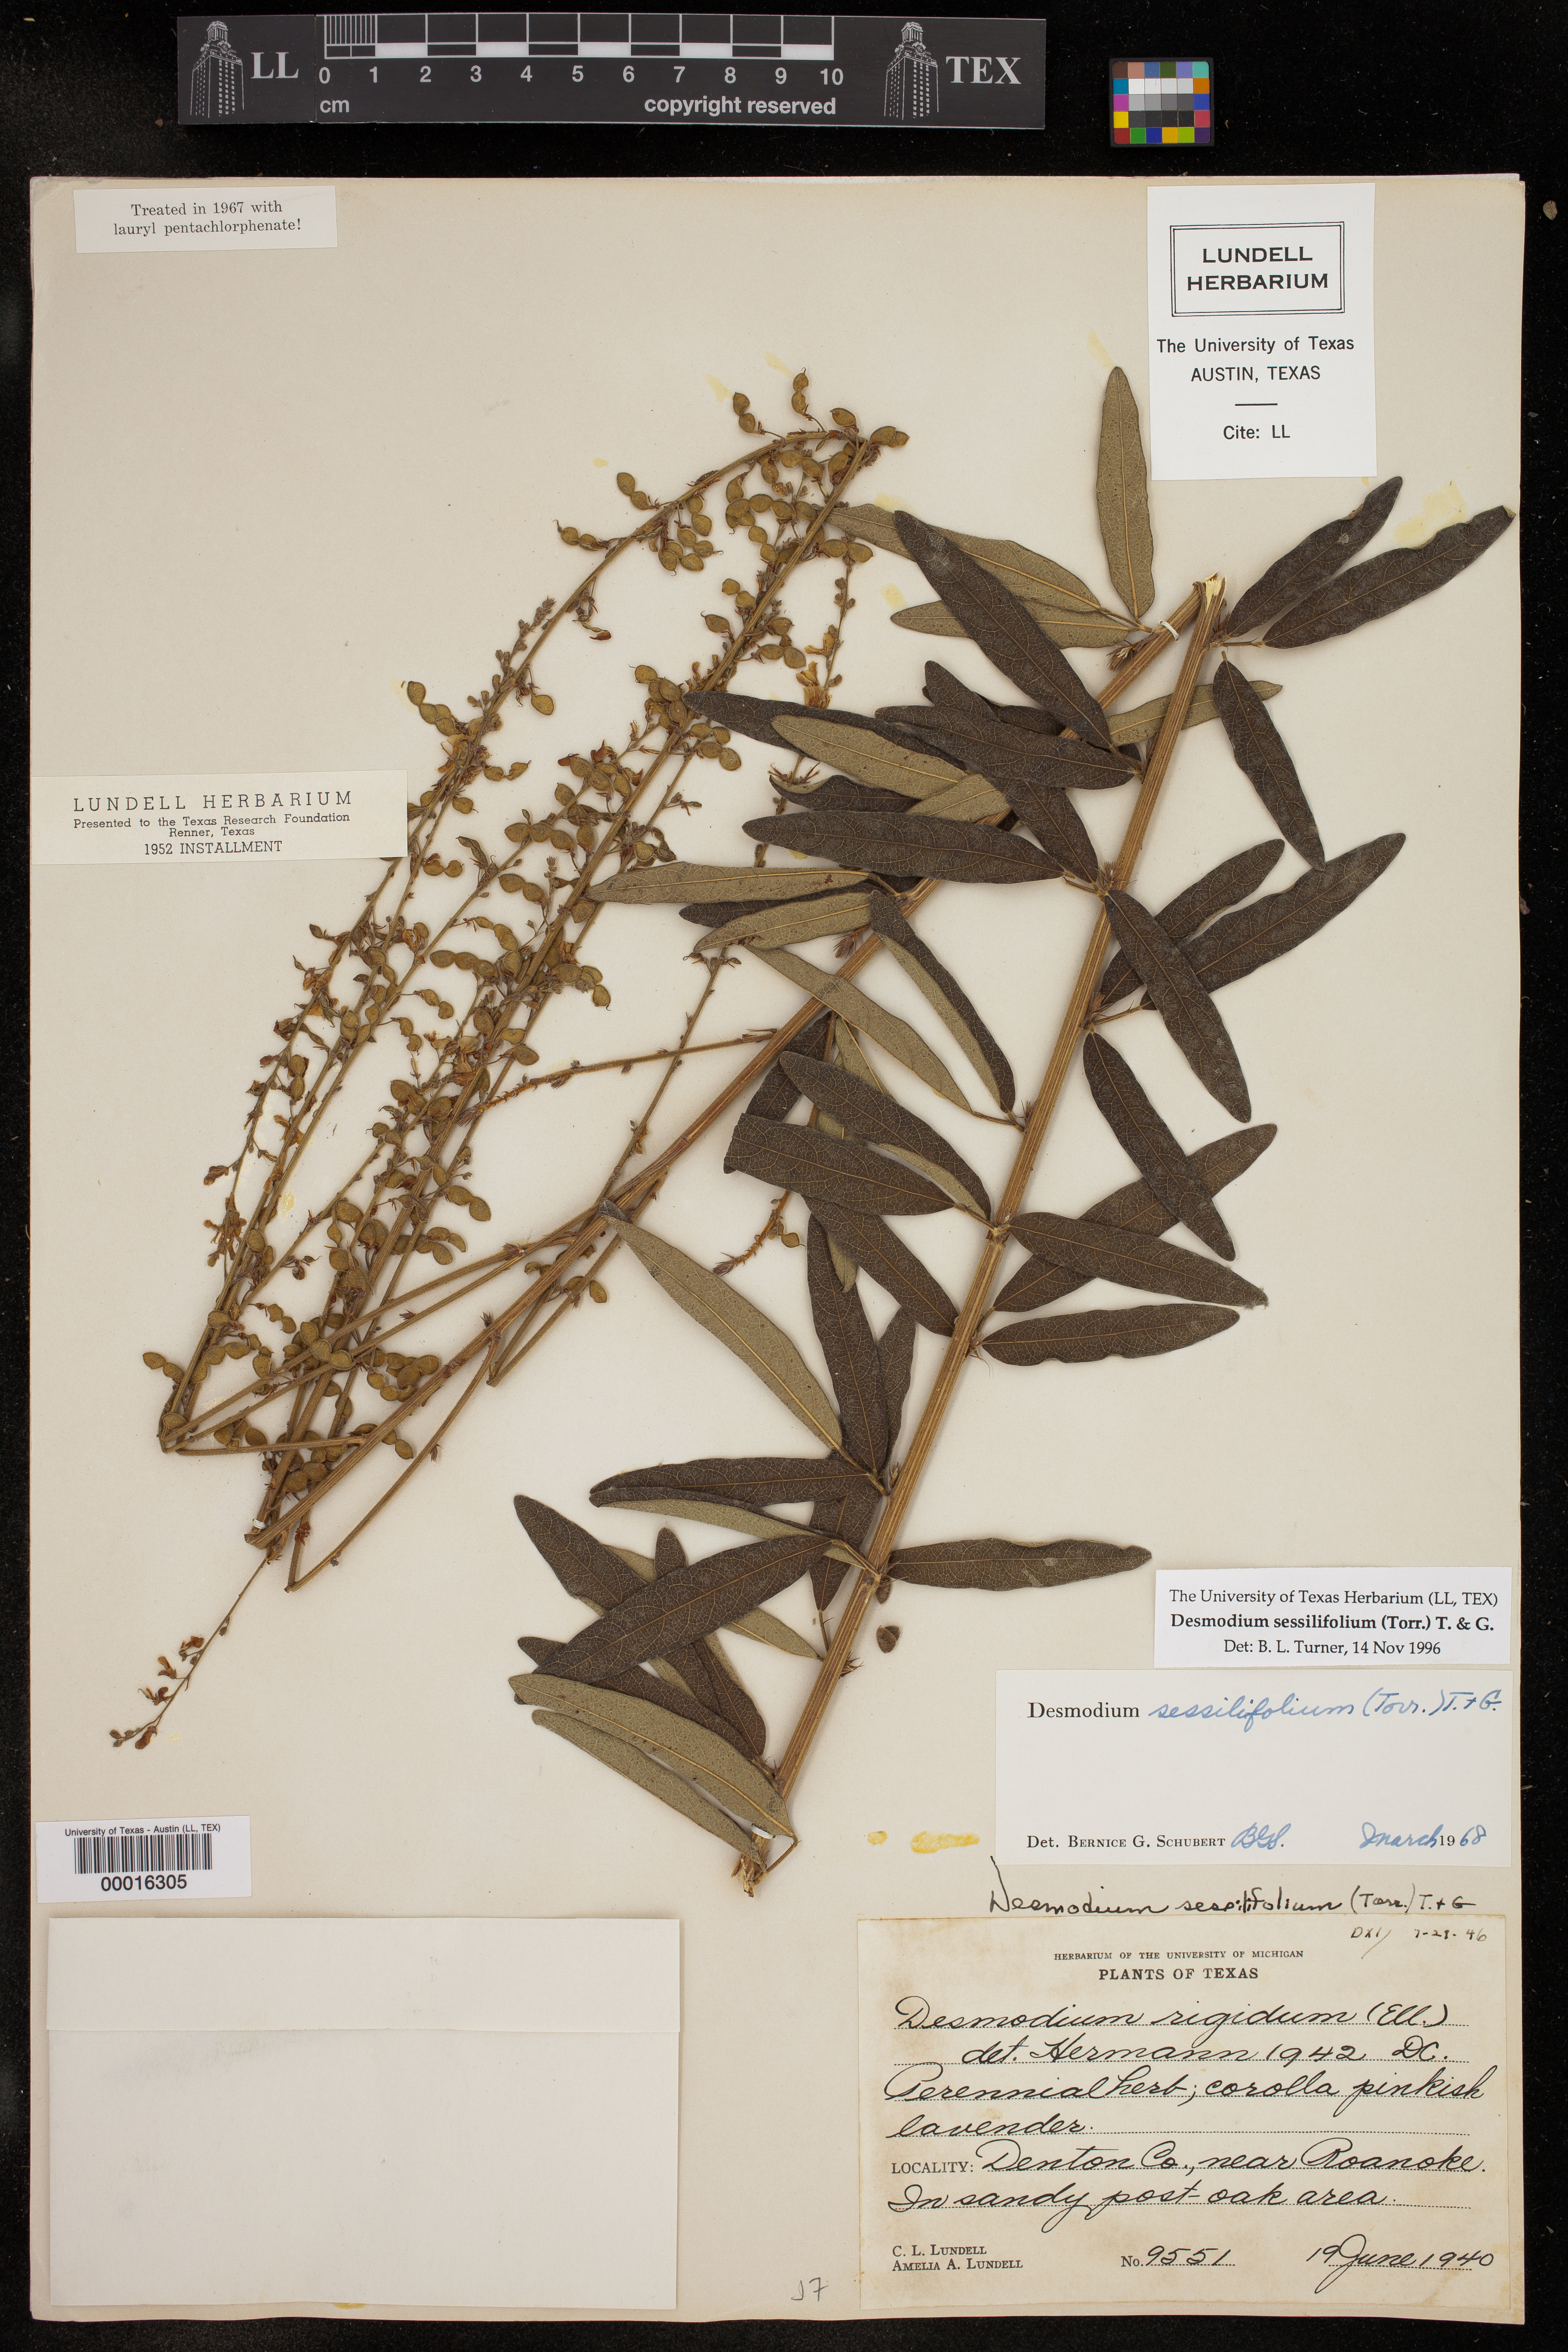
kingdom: Plantae
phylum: Tracheophyta
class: Magnoliopsida
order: Fabales
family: Fabaceae
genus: Desmodium
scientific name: Desmodium sessilifolium
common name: Sessile tick-clover
